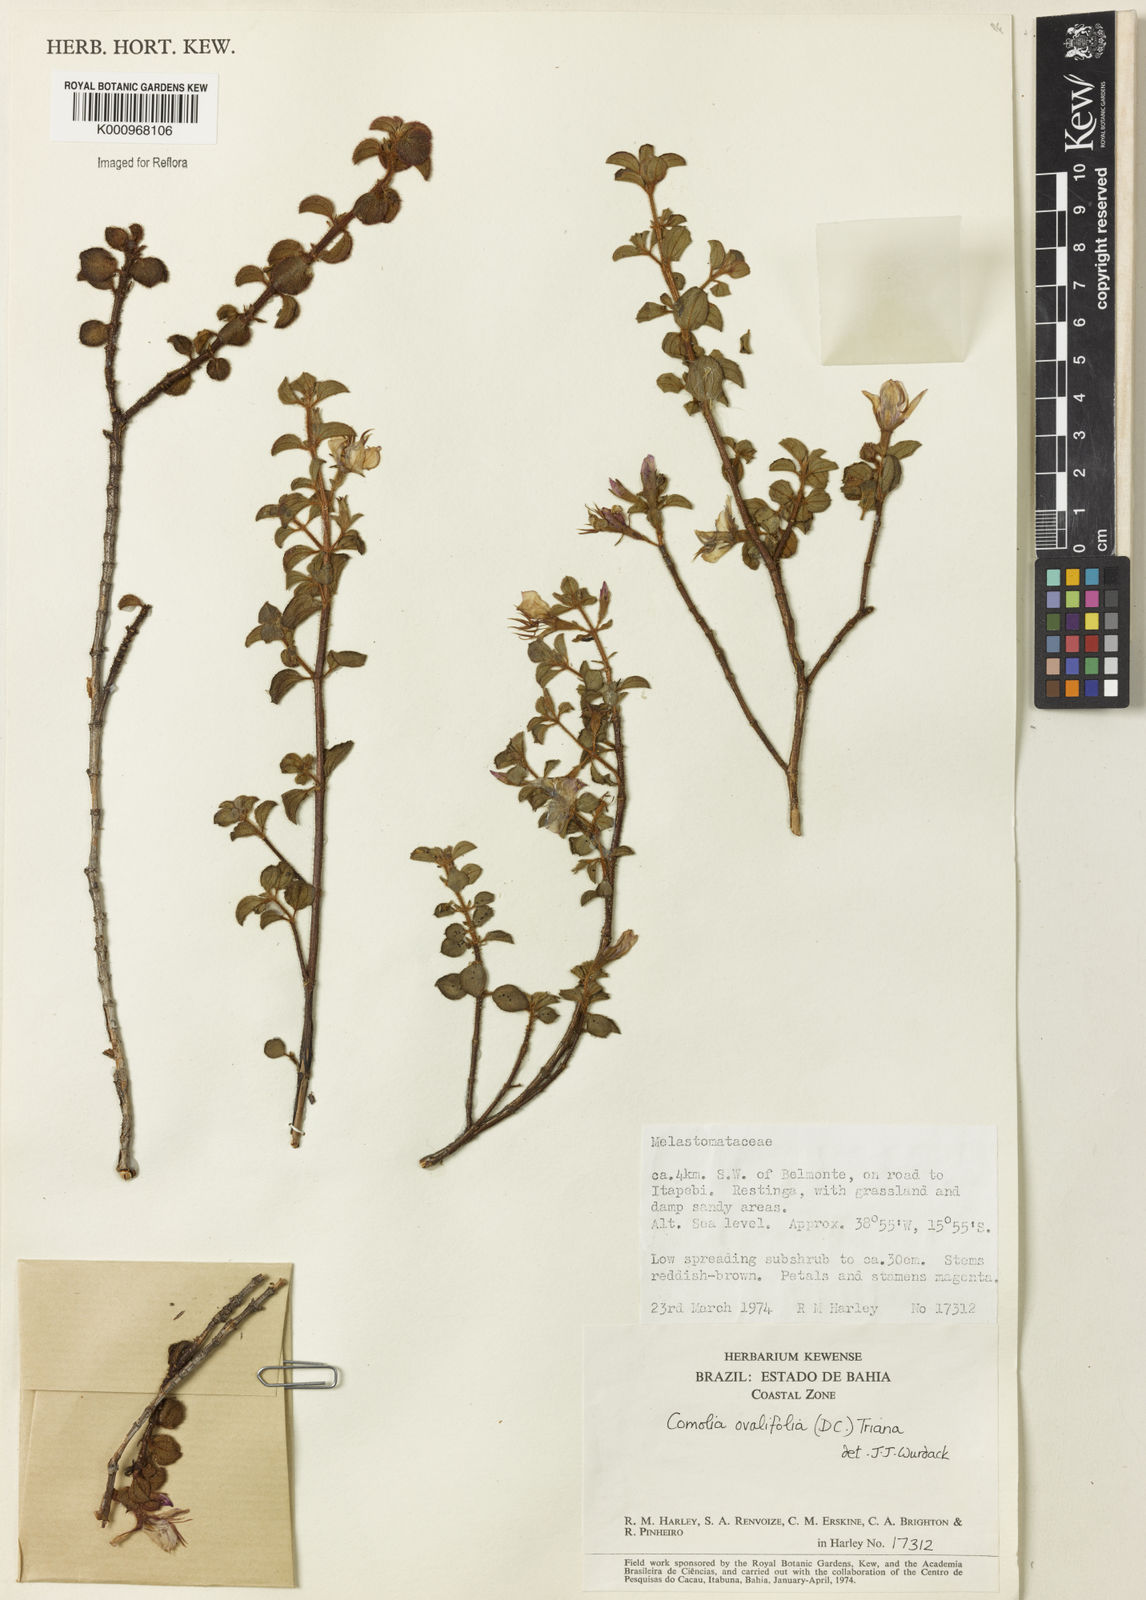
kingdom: Plantae
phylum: Tracheophyta
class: Magnoliopsida
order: Myrtales
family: Melastomataceae
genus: Comolia
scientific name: Comolia ovalifolia
